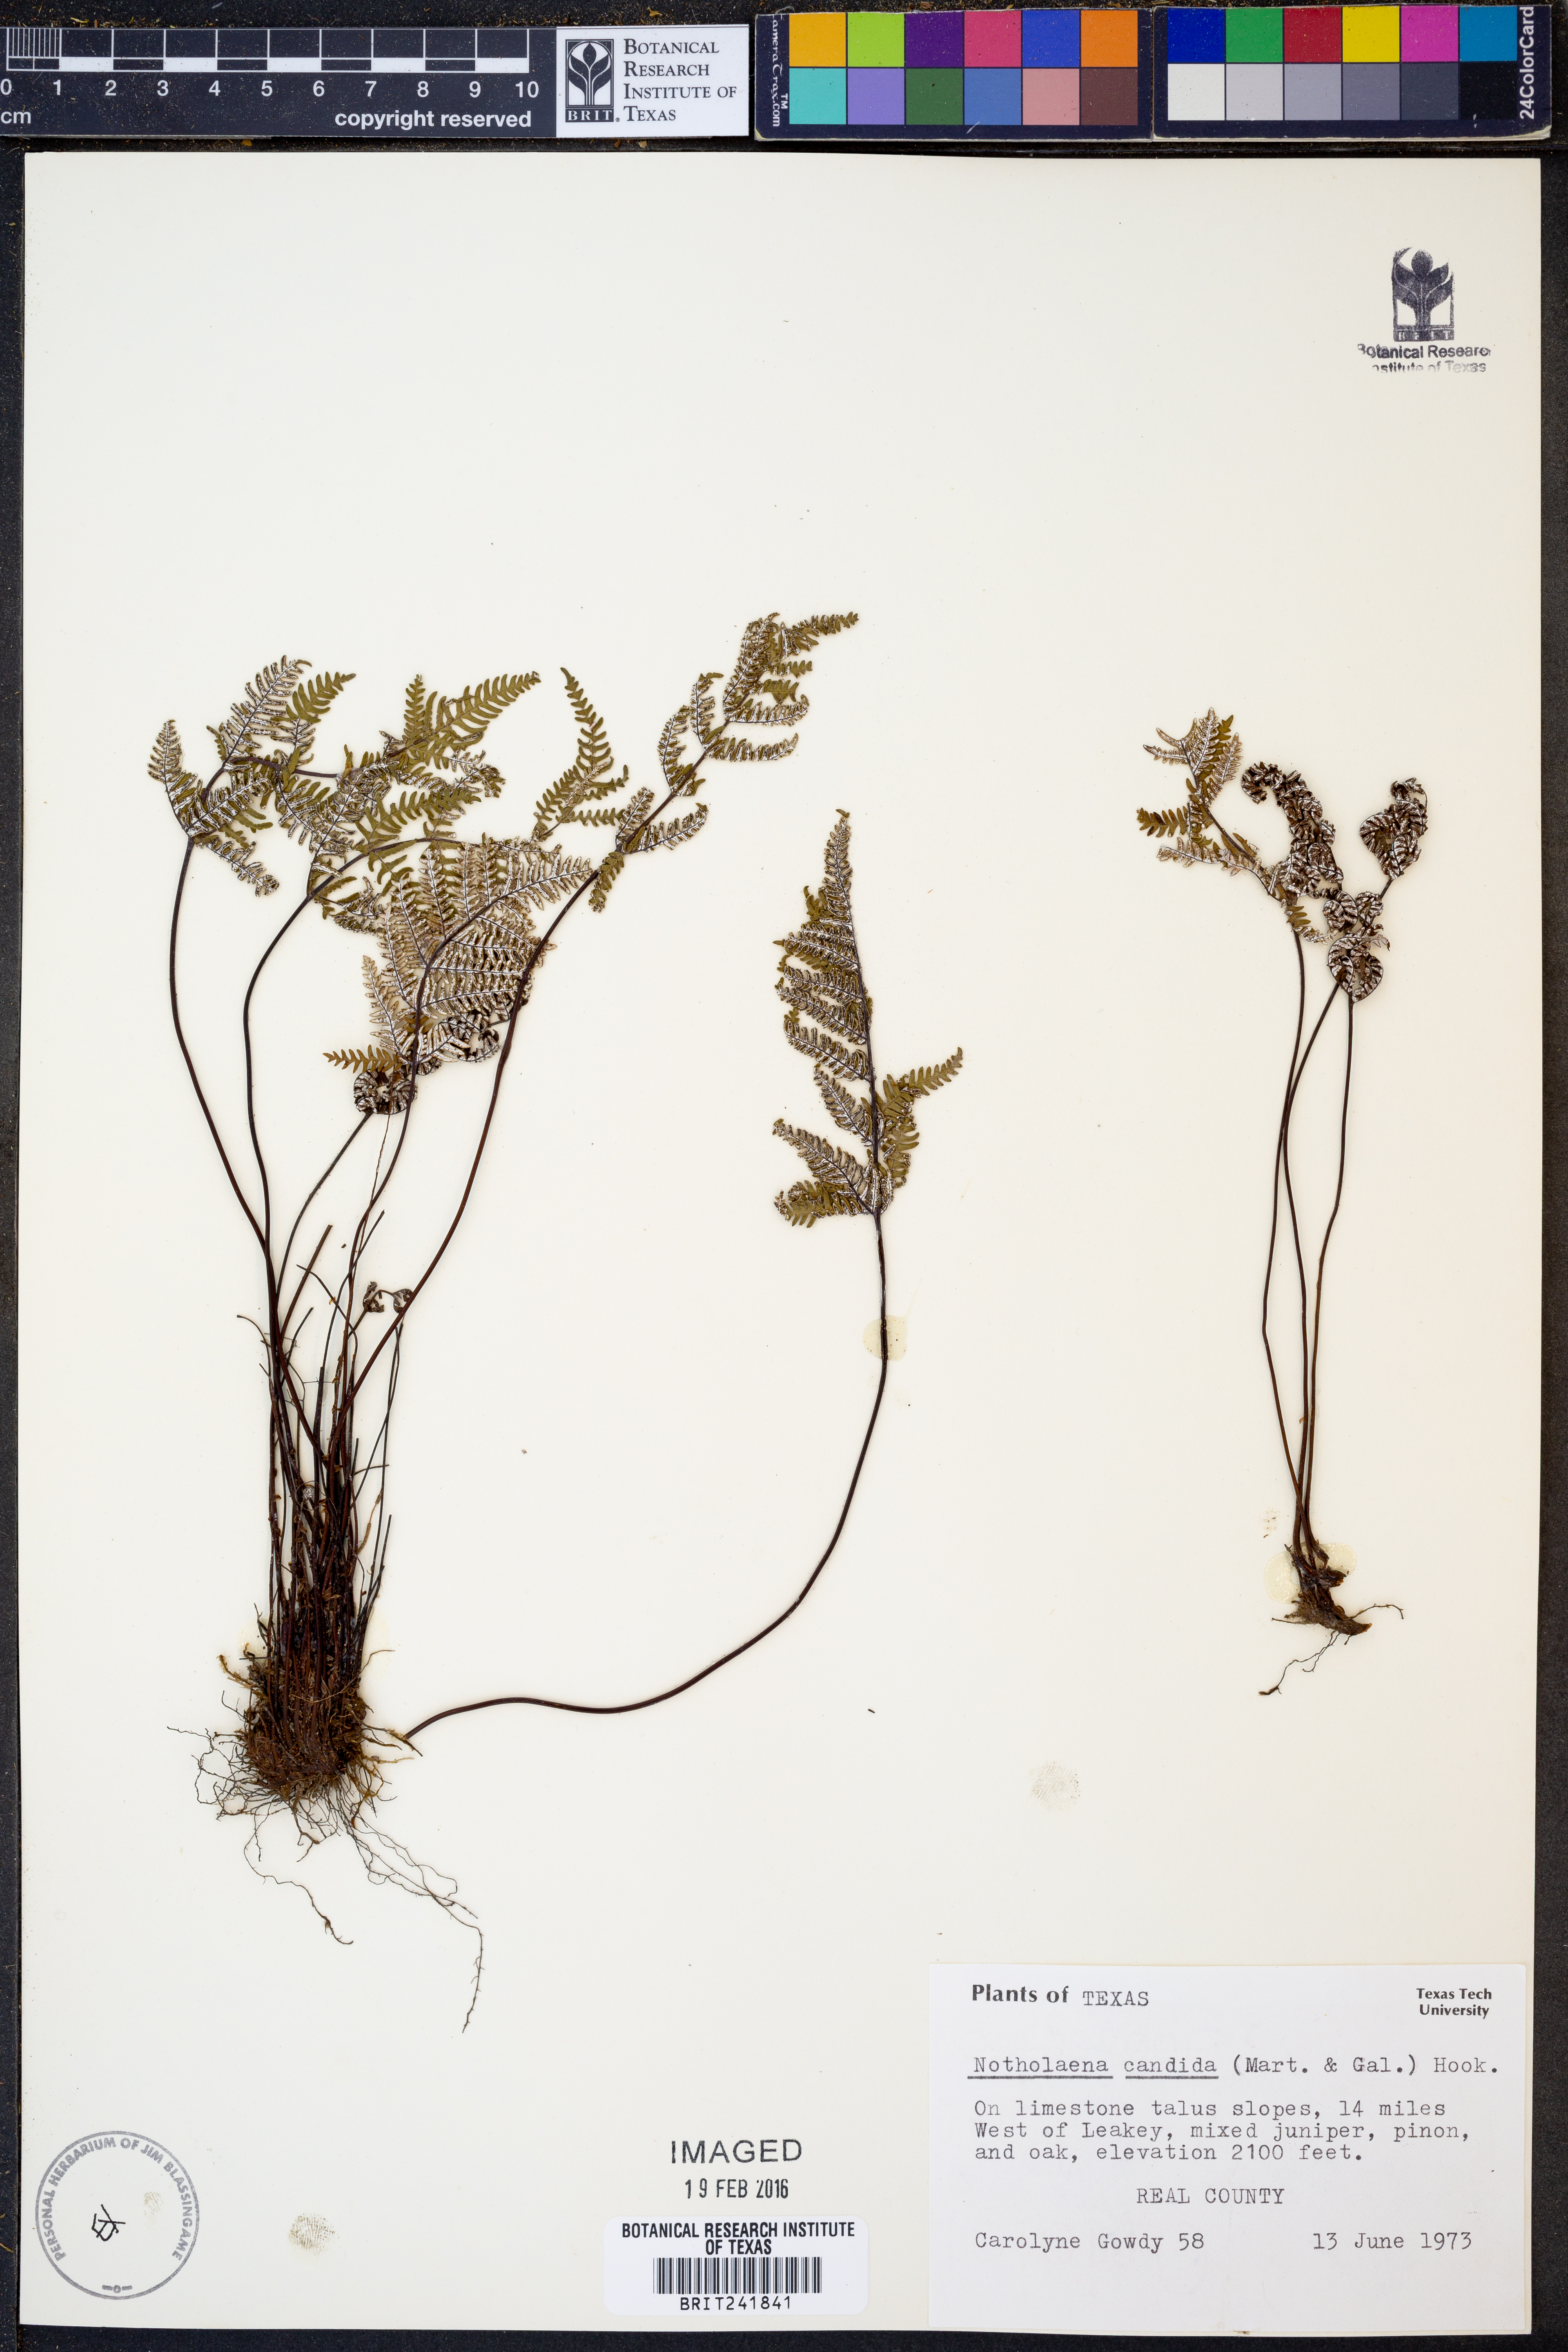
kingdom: Plantae
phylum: Tracheophyta
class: Polypodiopsida
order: Polypodiales
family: Pteridaceae
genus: Notholaena
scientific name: Notholaena candida
